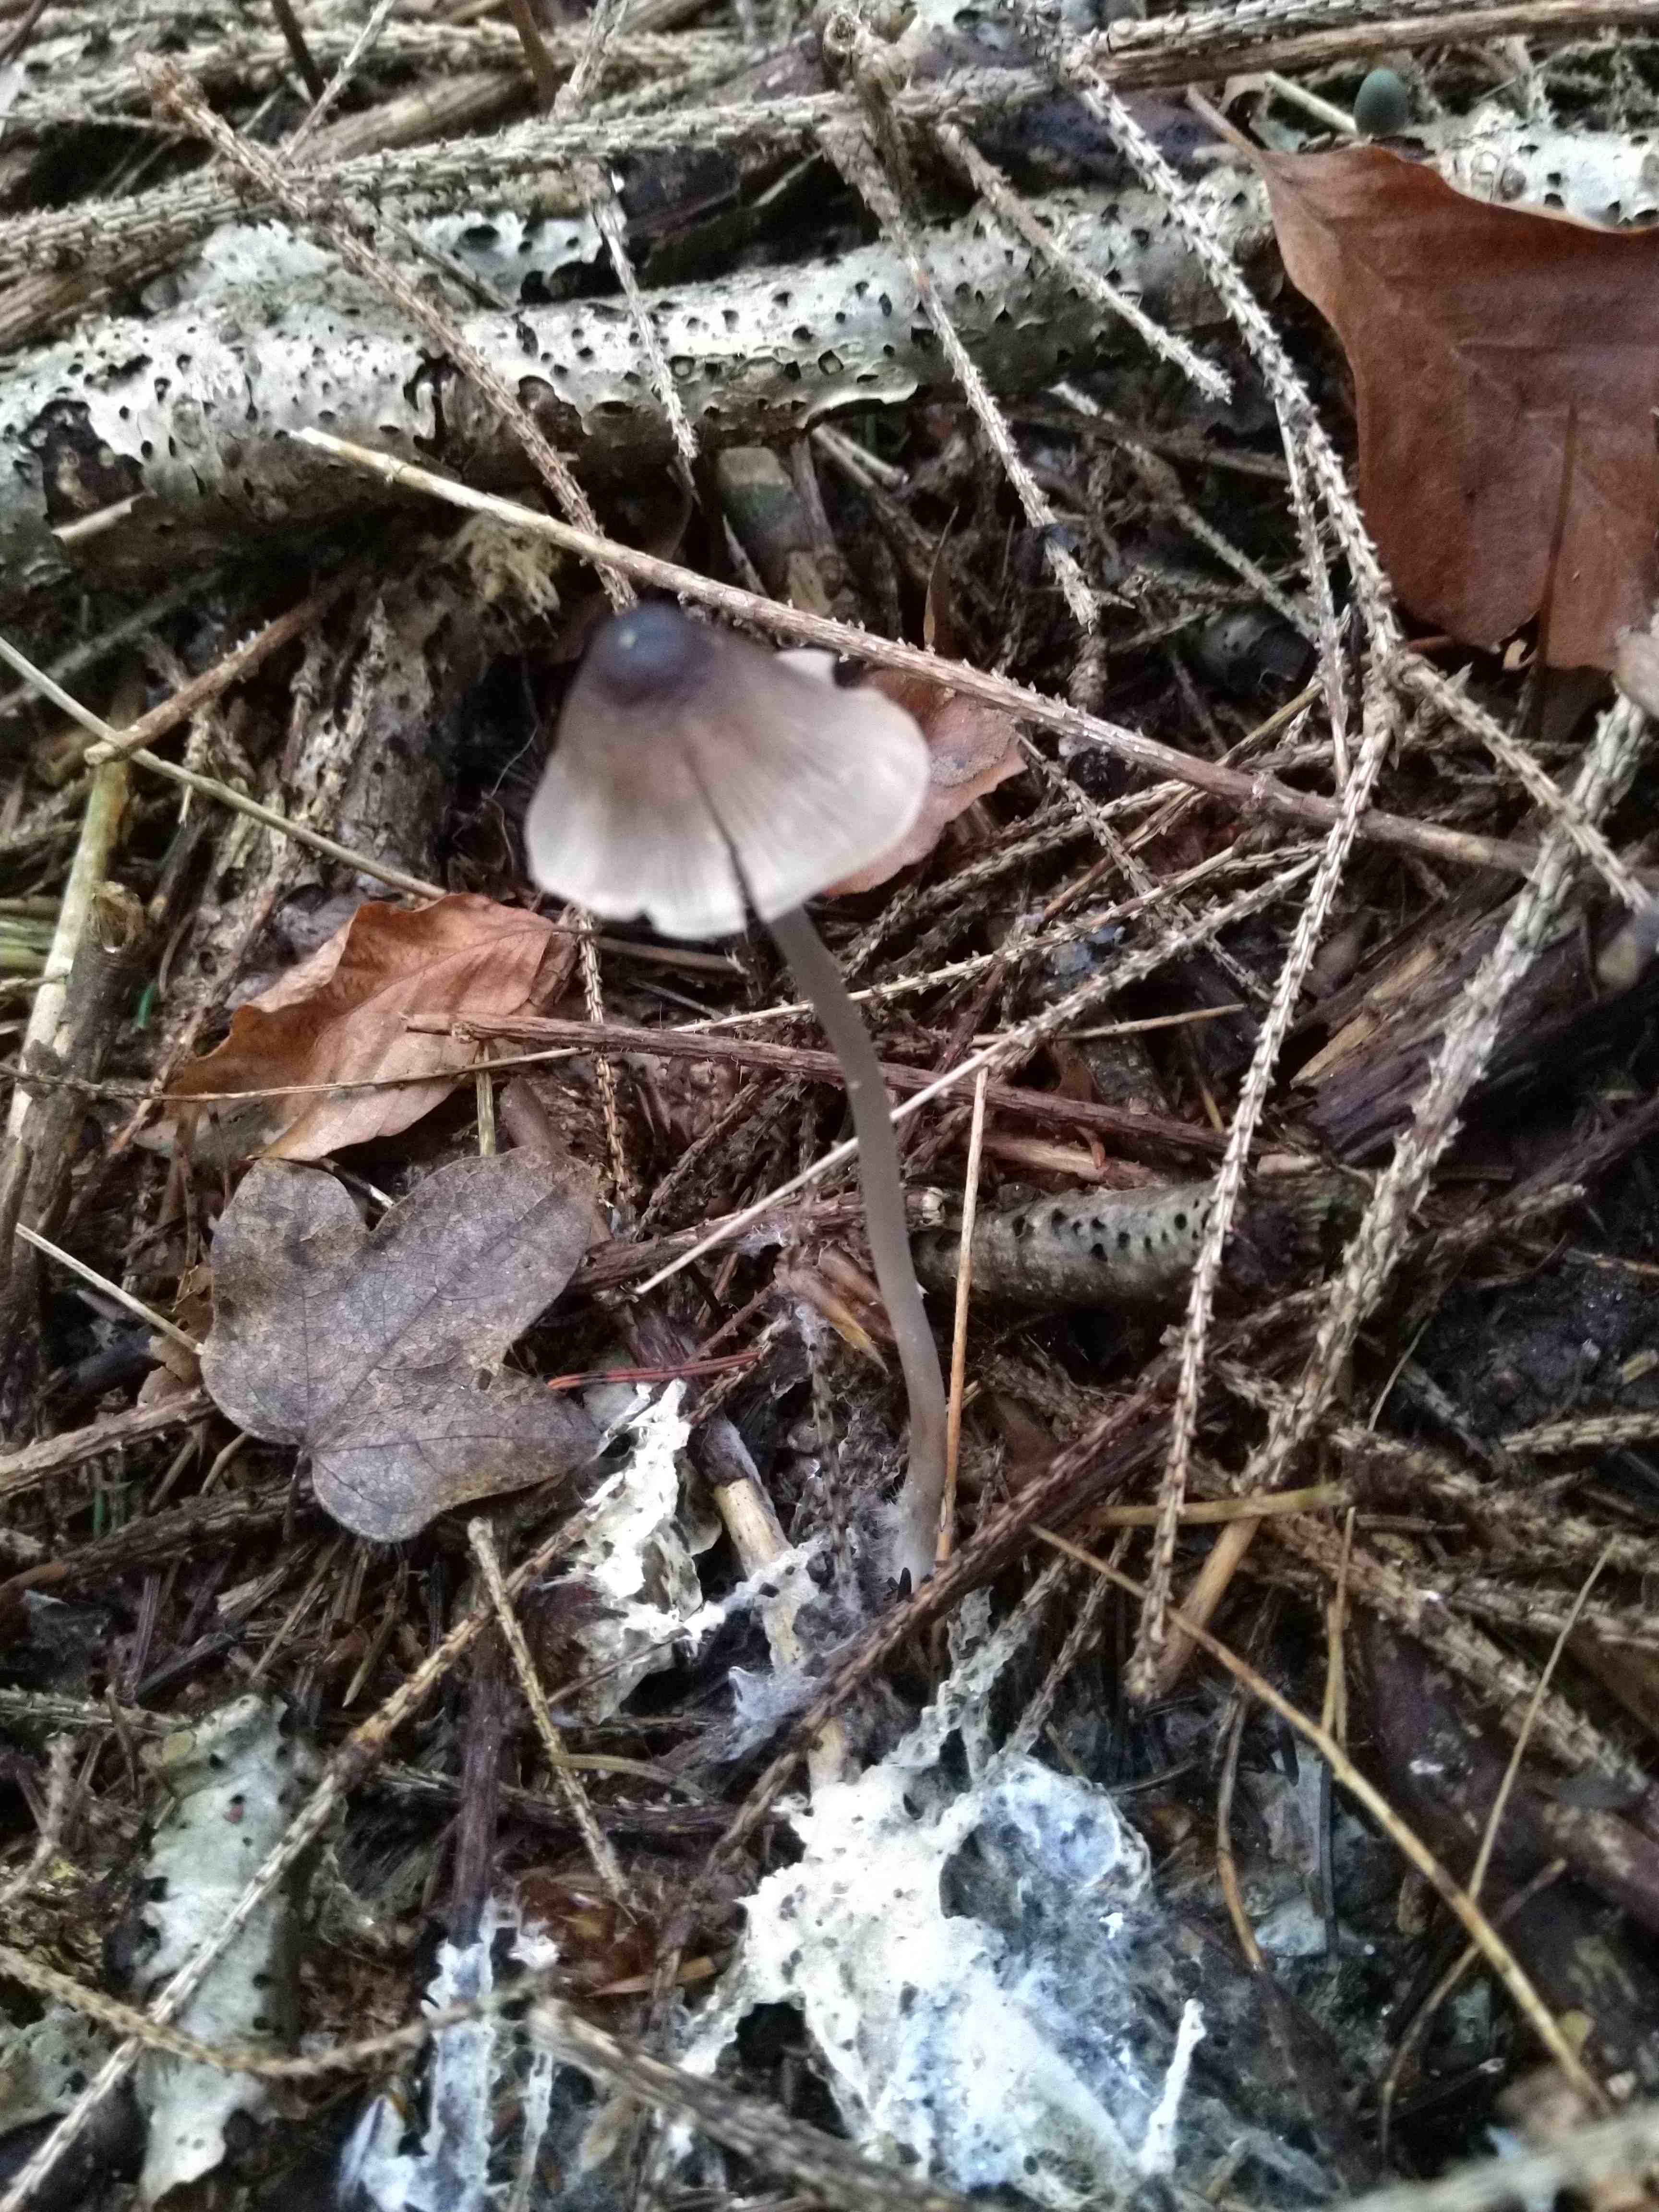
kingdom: Fungi
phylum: Basidiomycota
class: Agaricomycetes
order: Agaricales
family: Mycenaceae
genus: Mycena
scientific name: Mycena polygramma
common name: mangestribet huesvamp
